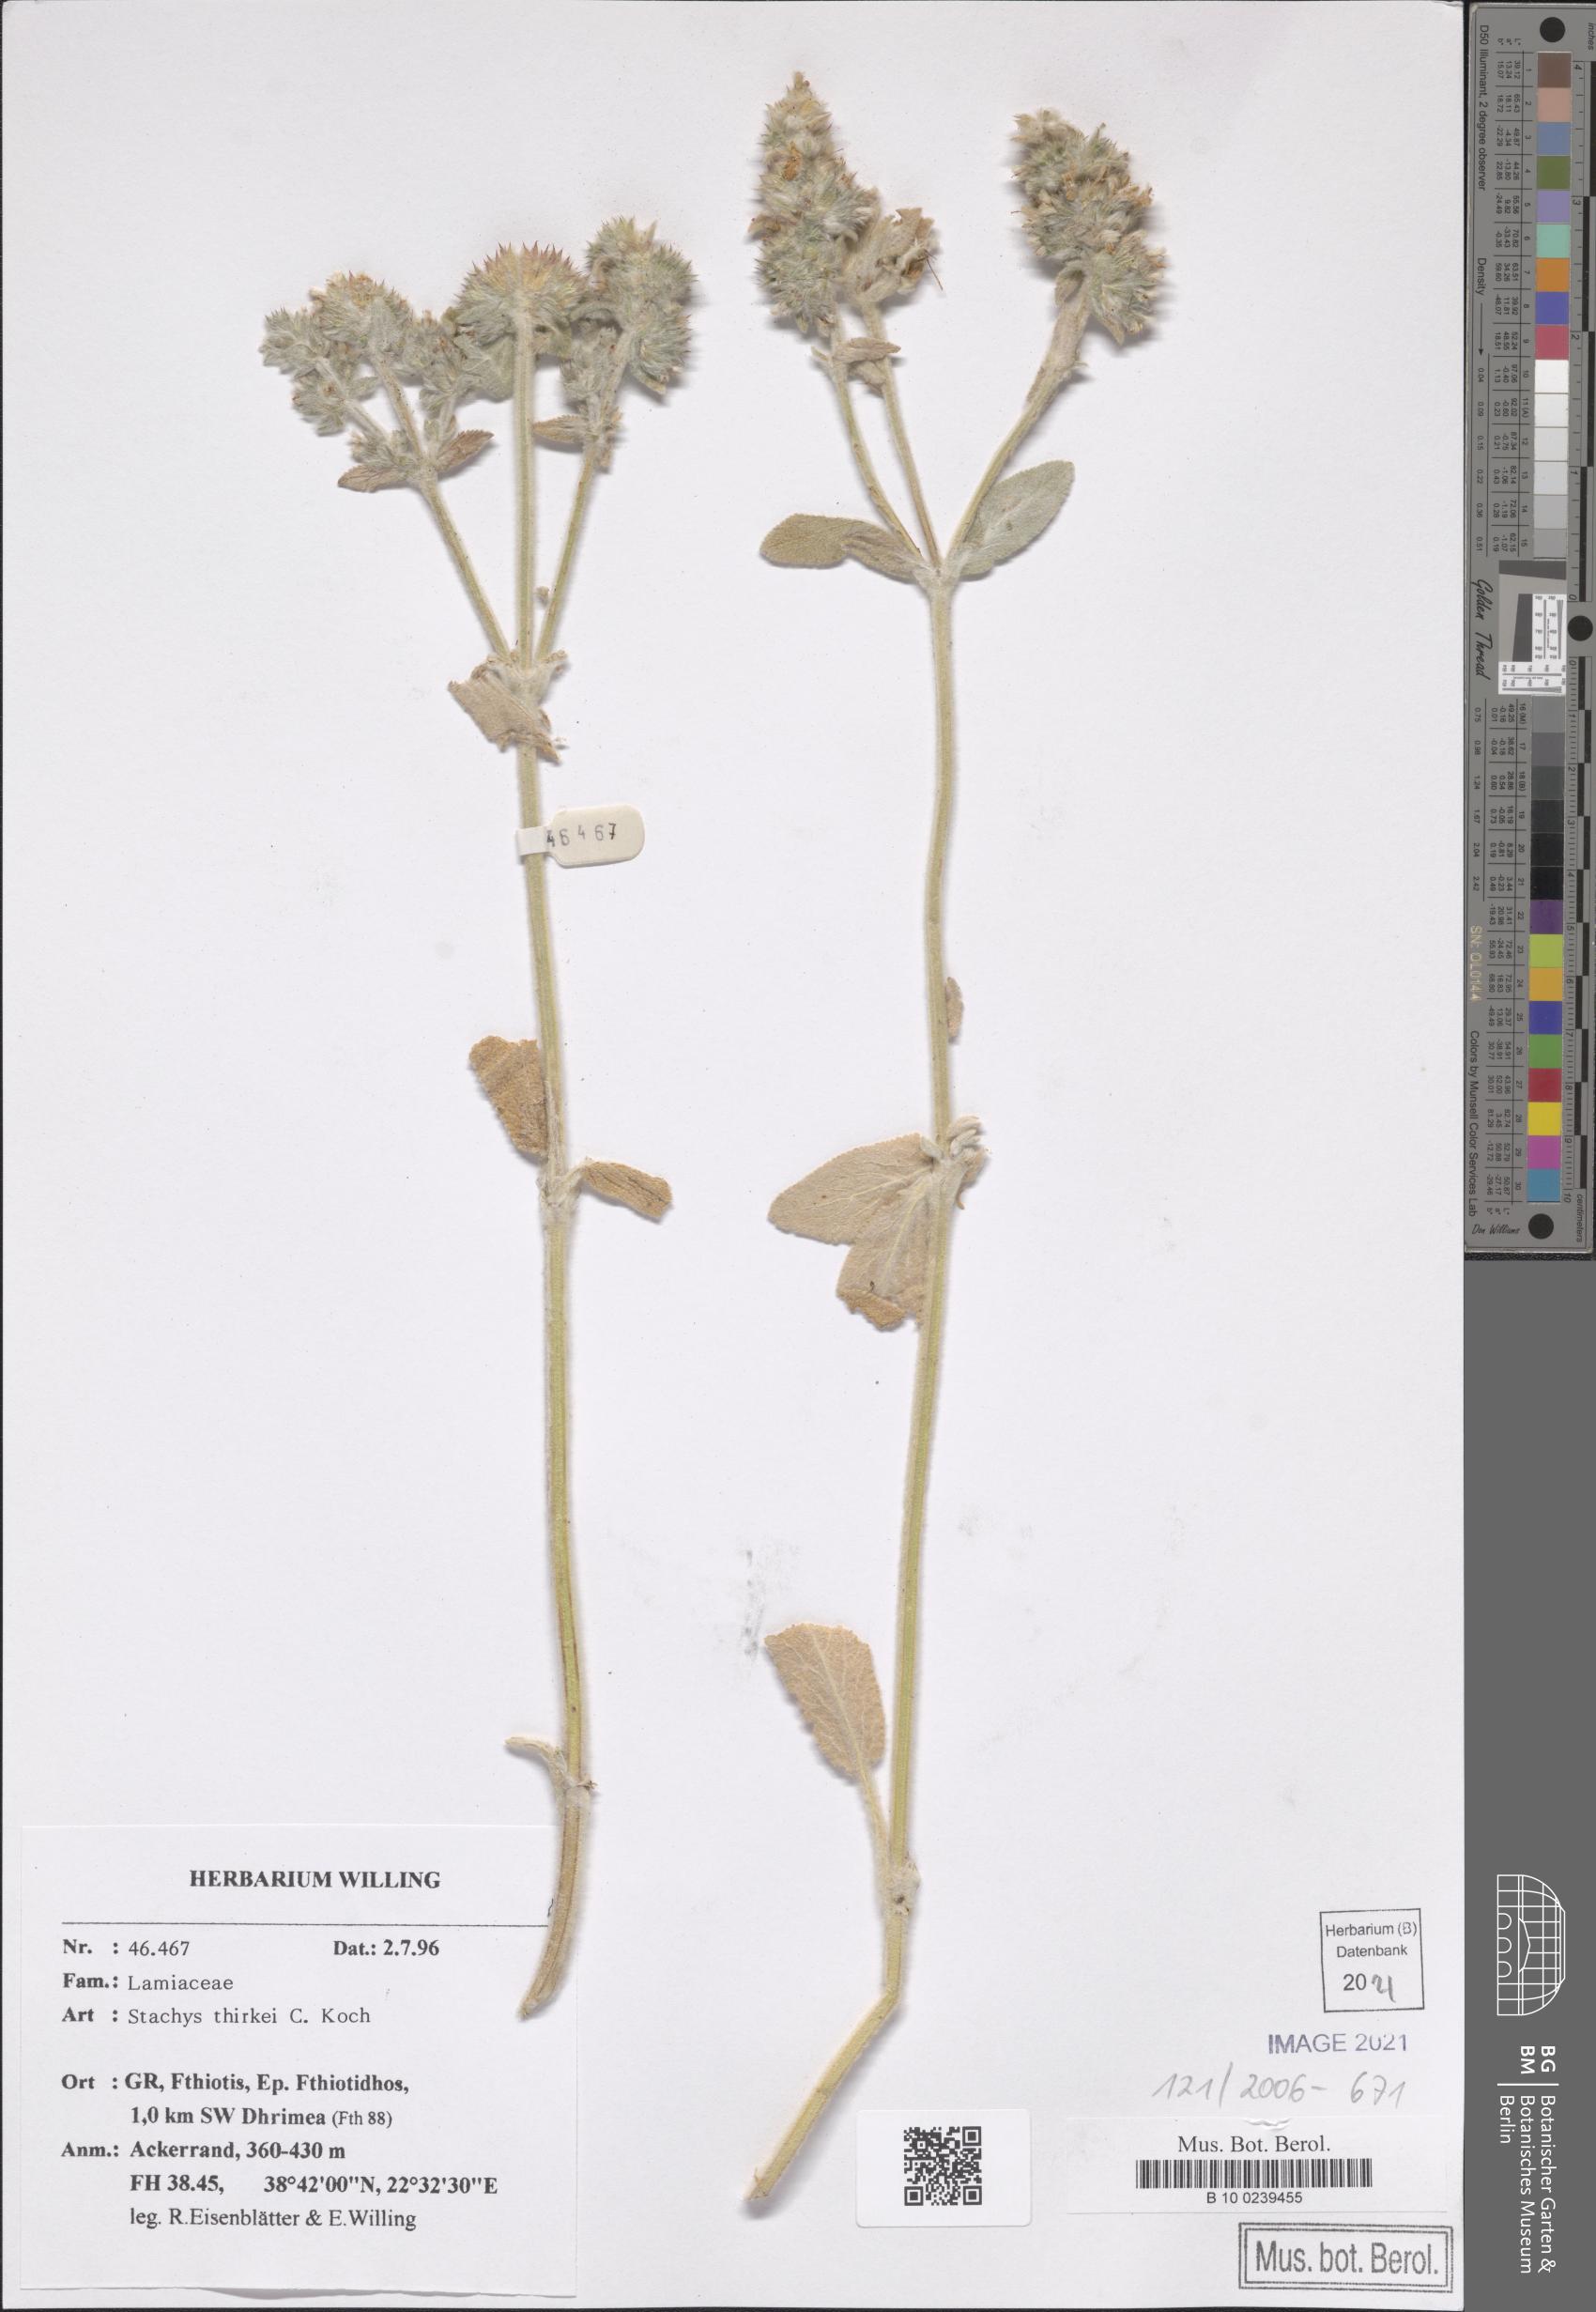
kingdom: Plantae
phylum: Tracheophyta
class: Magnoliopsida
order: Lamiales
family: Lamiaceae
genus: Stachys
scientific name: Stachys thirkei
